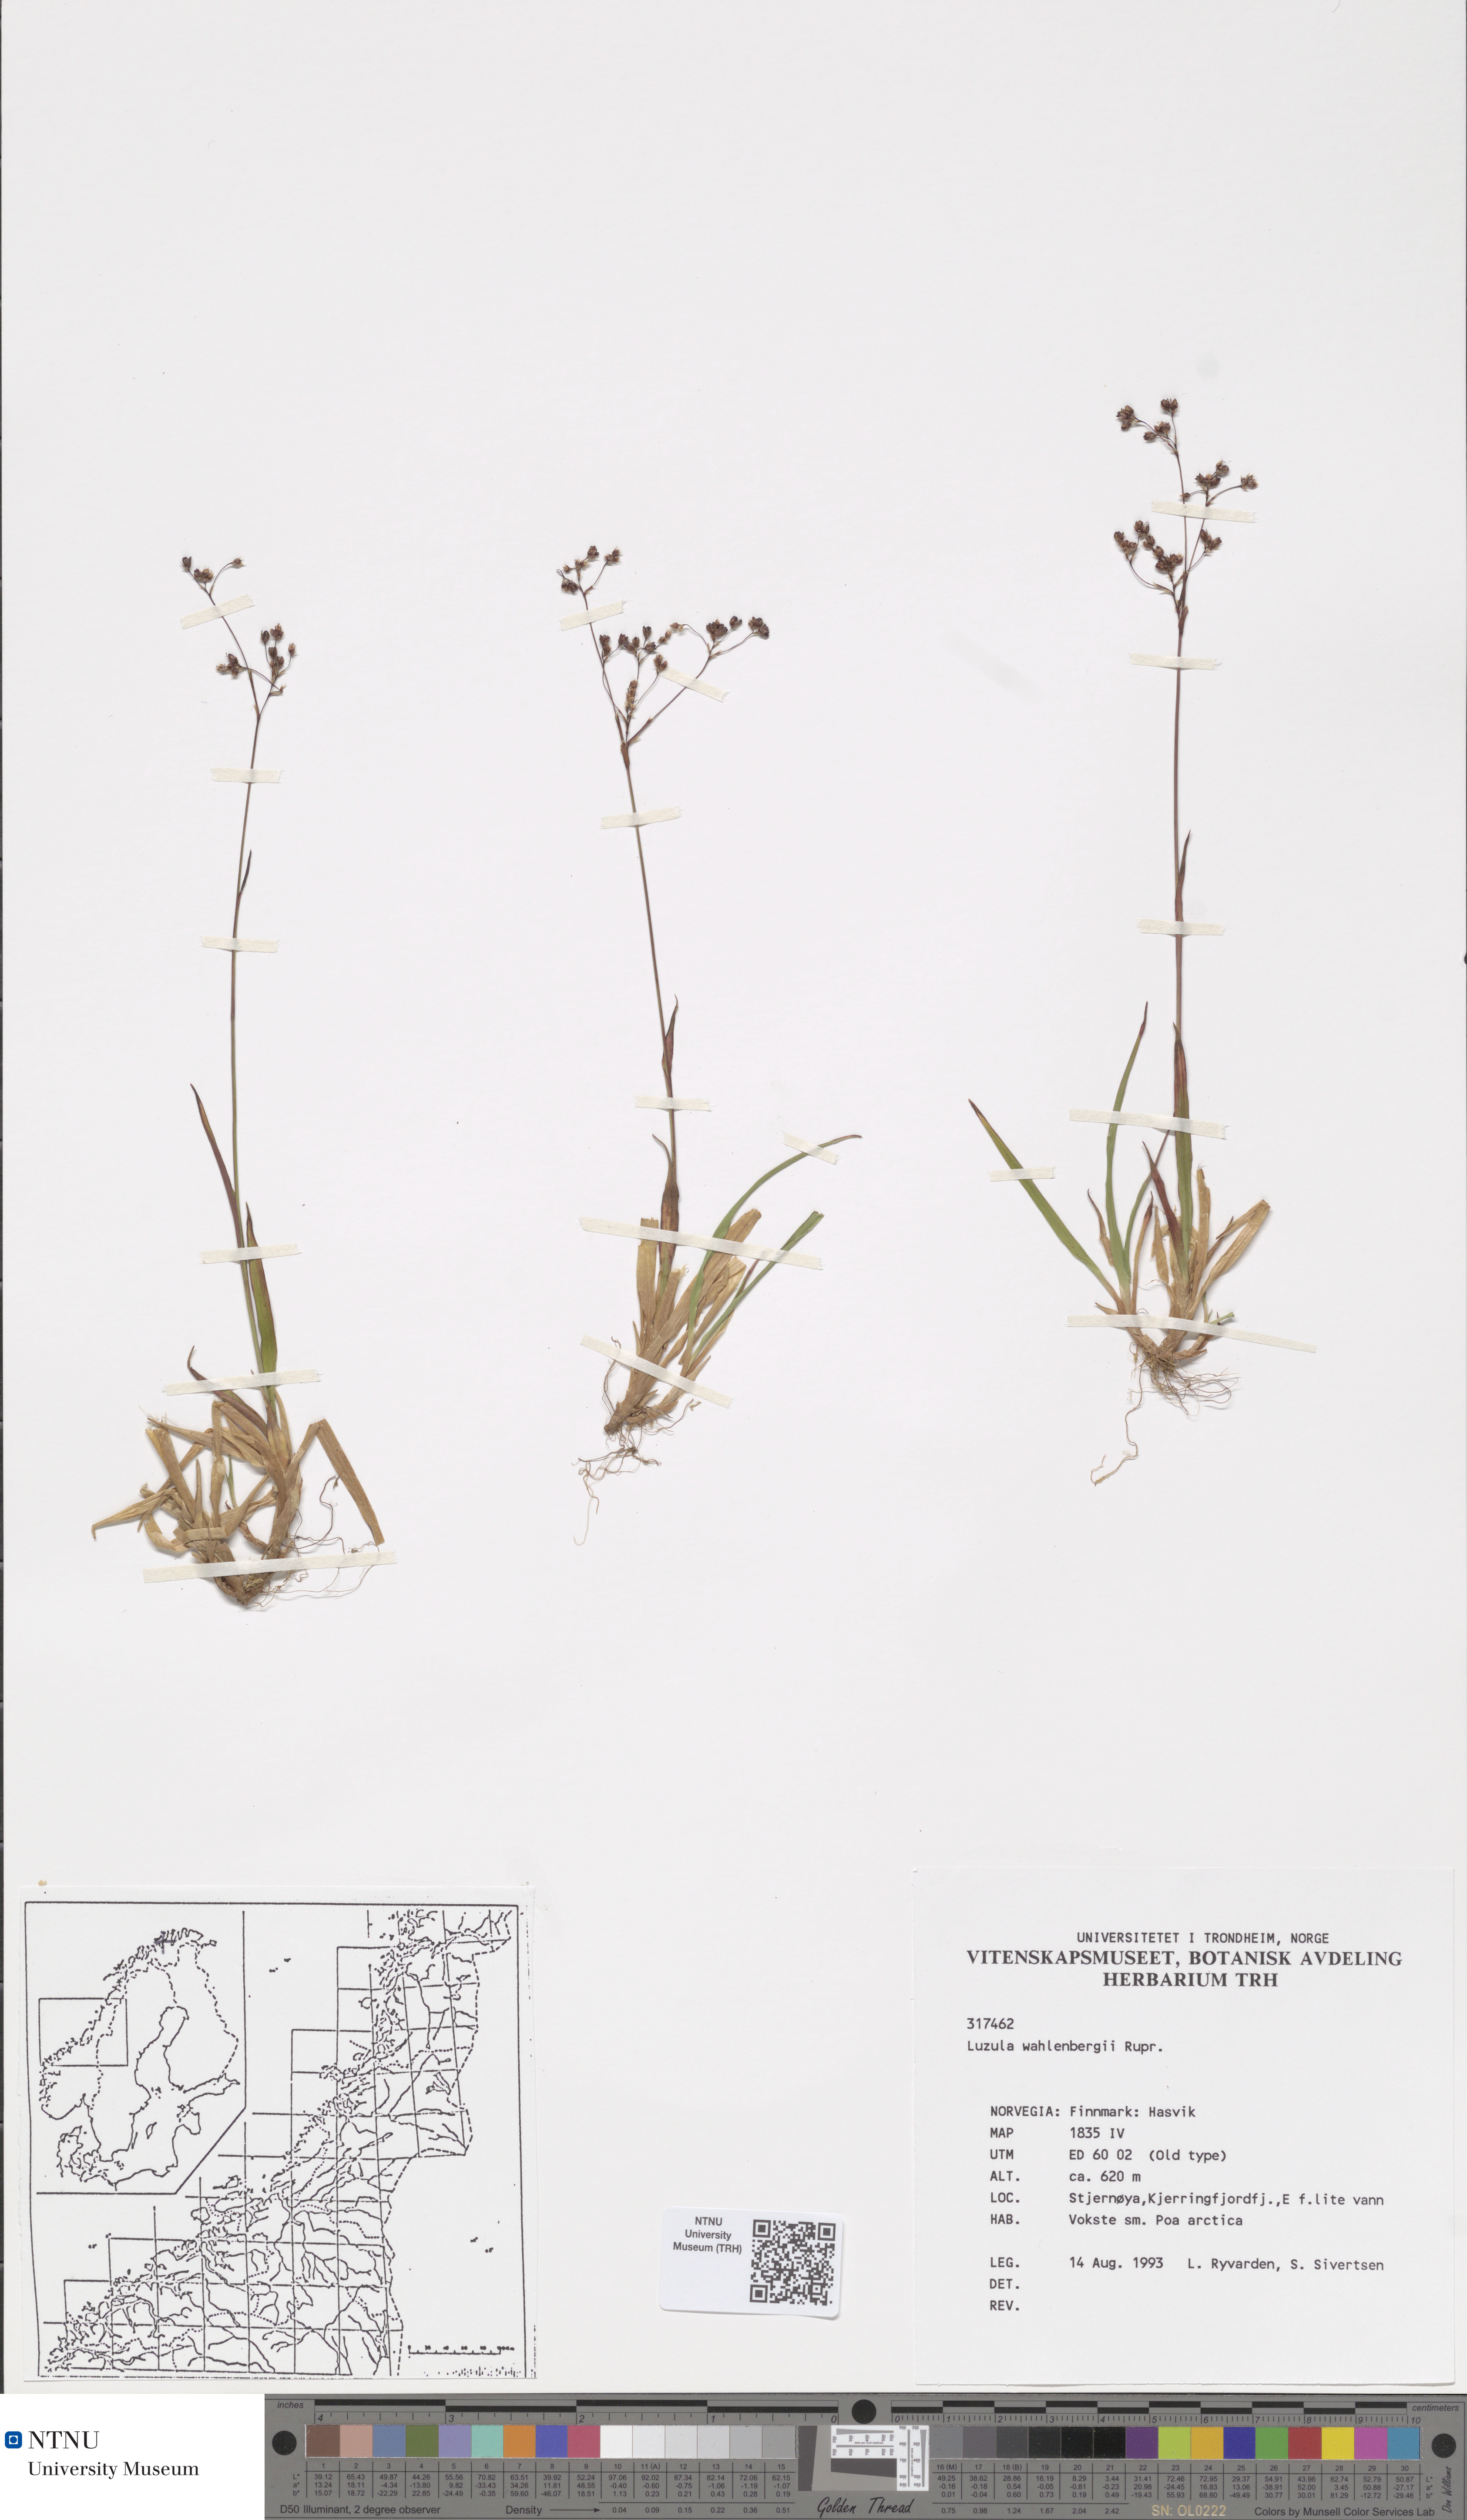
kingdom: Plantae
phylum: Tracheophyta
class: Liliopsida
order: Poales
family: Juncaceae
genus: Luzula
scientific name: Luzula wahlenbergii
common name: Wahlenberg's wood-rush
